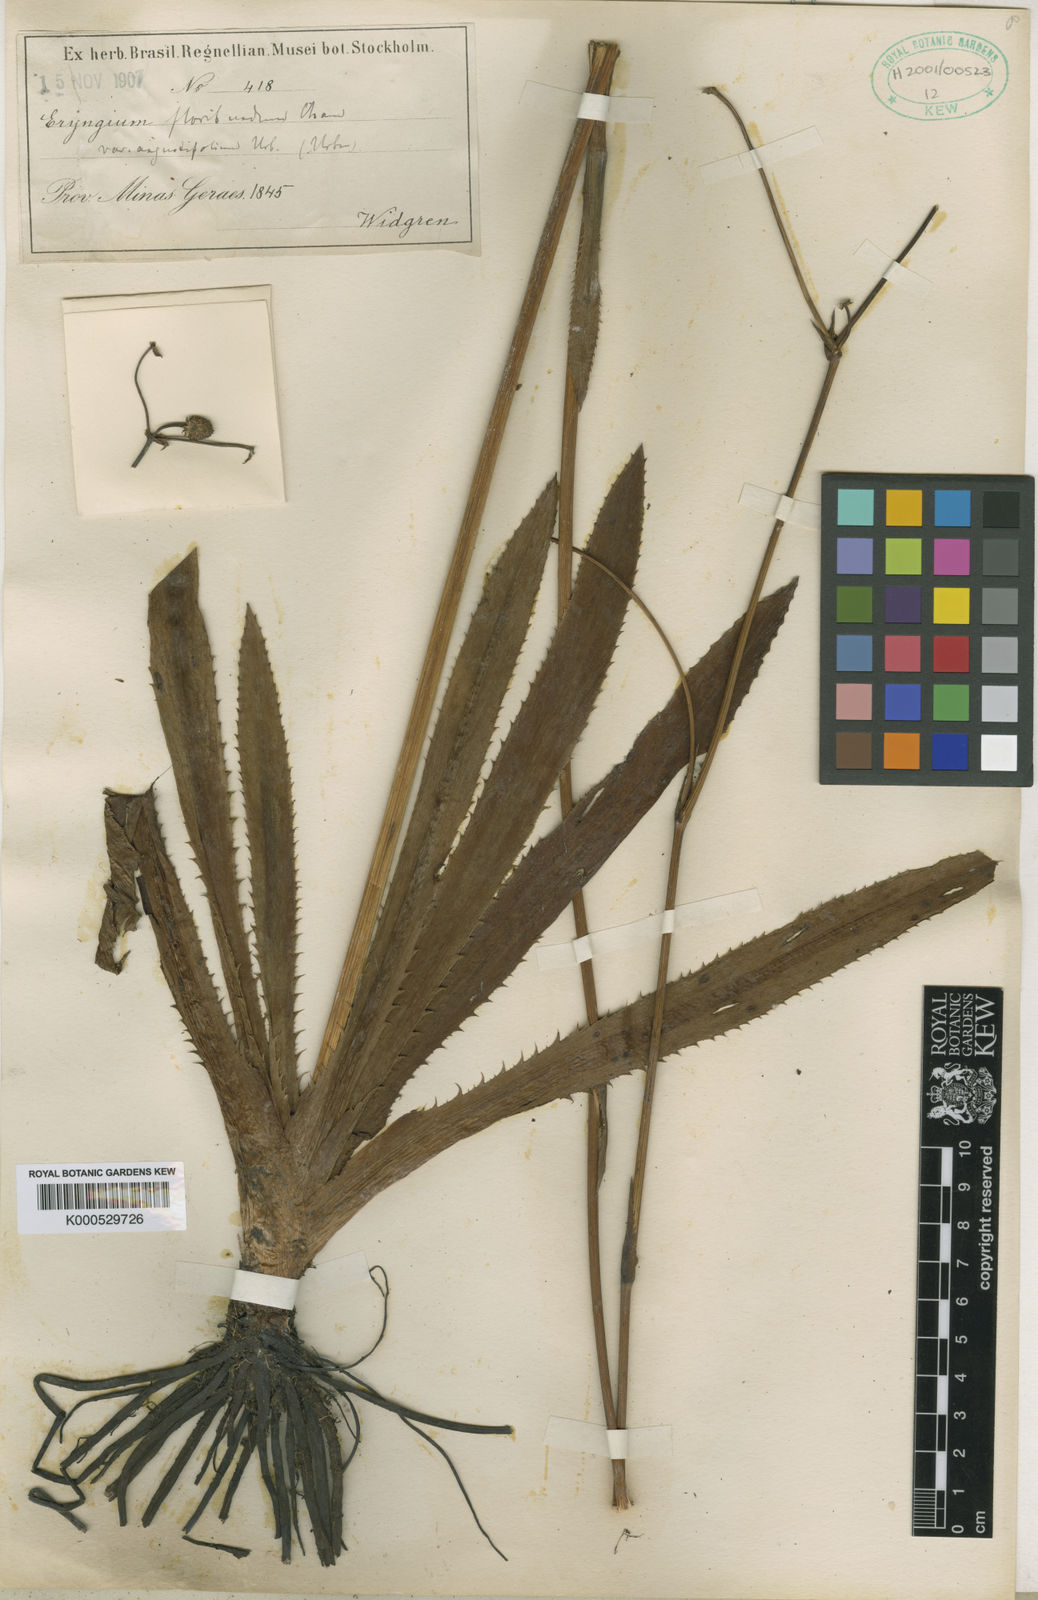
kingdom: Plantae
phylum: Tracheophyta
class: Magnoliopsida
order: Apiales
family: Apiaceae
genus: Eryngium
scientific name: Eryngium floribundum
